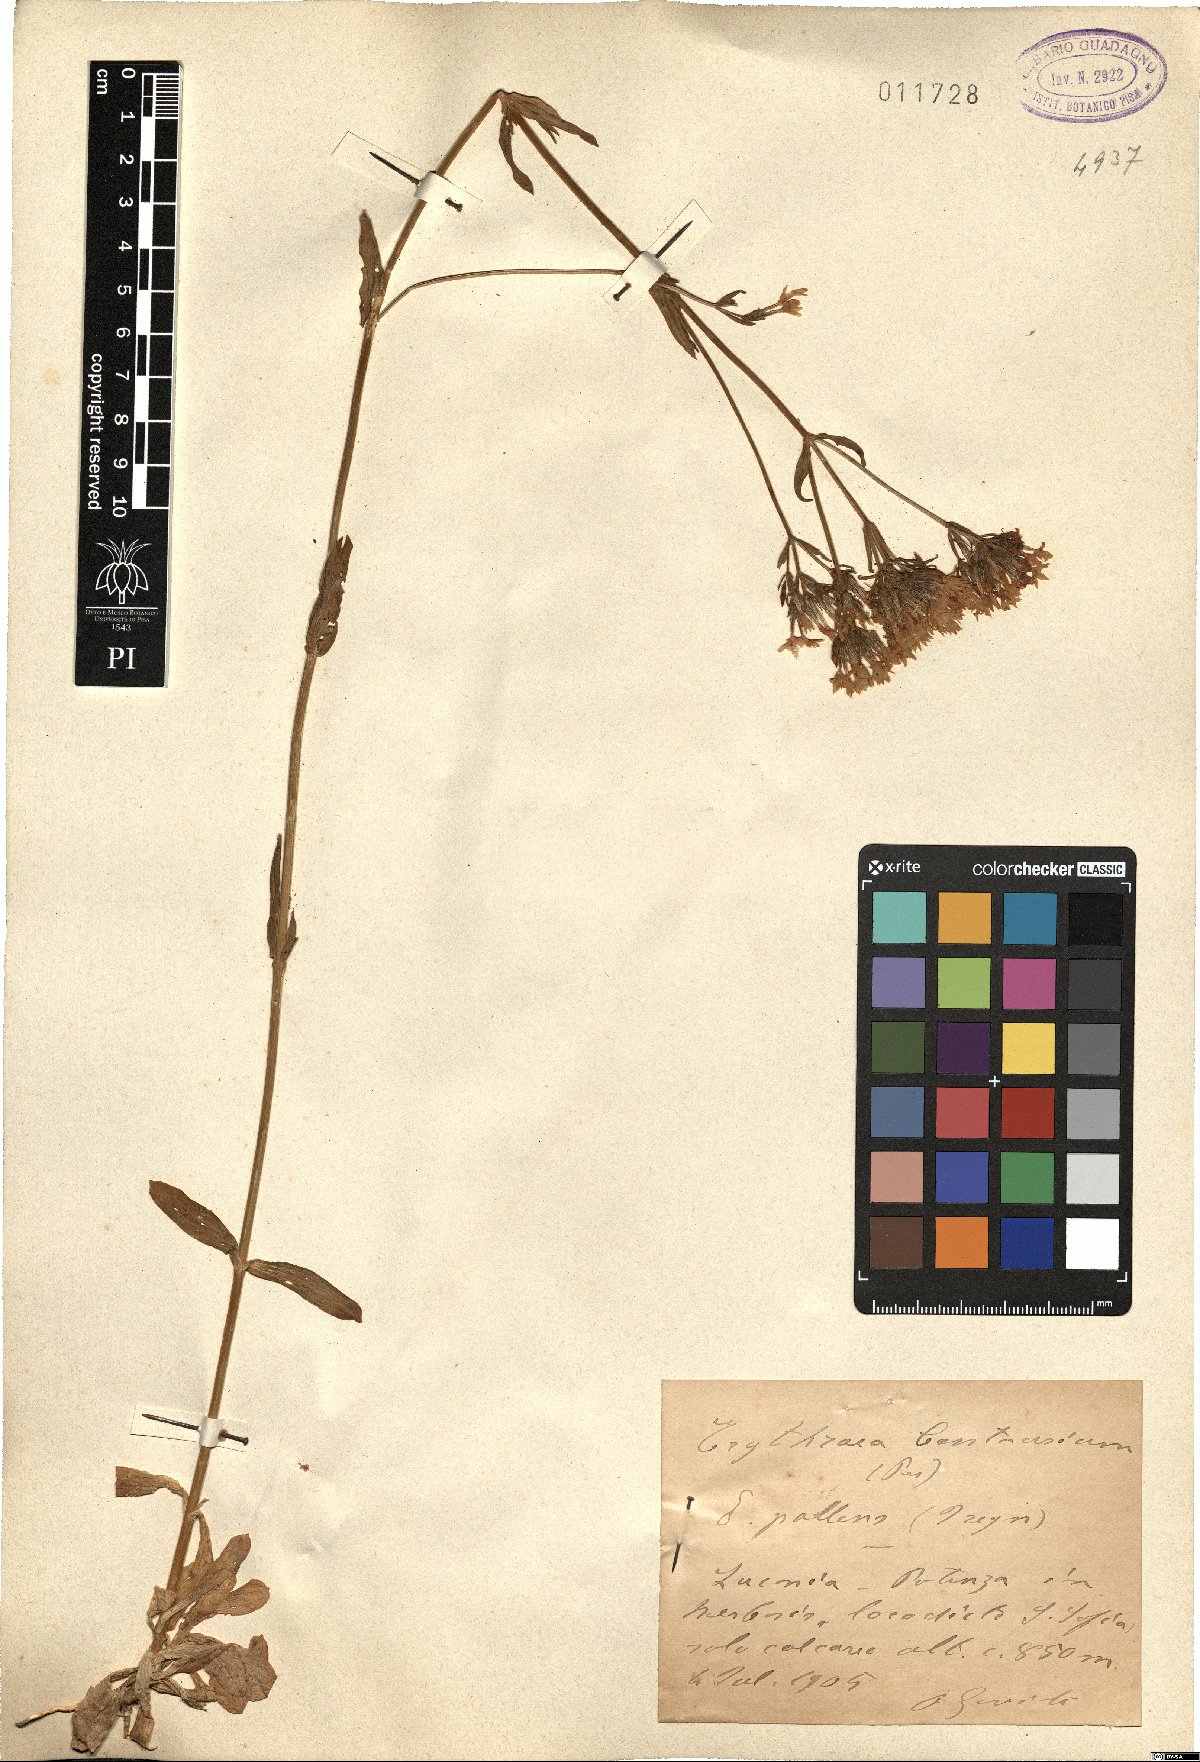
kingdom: Plantae
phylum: Tracheophyta
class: Magnoliopsida
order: Gentianales
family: Gentianaceae
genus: Centaurium
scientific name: Centaurium erythraea
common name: Common centaury
